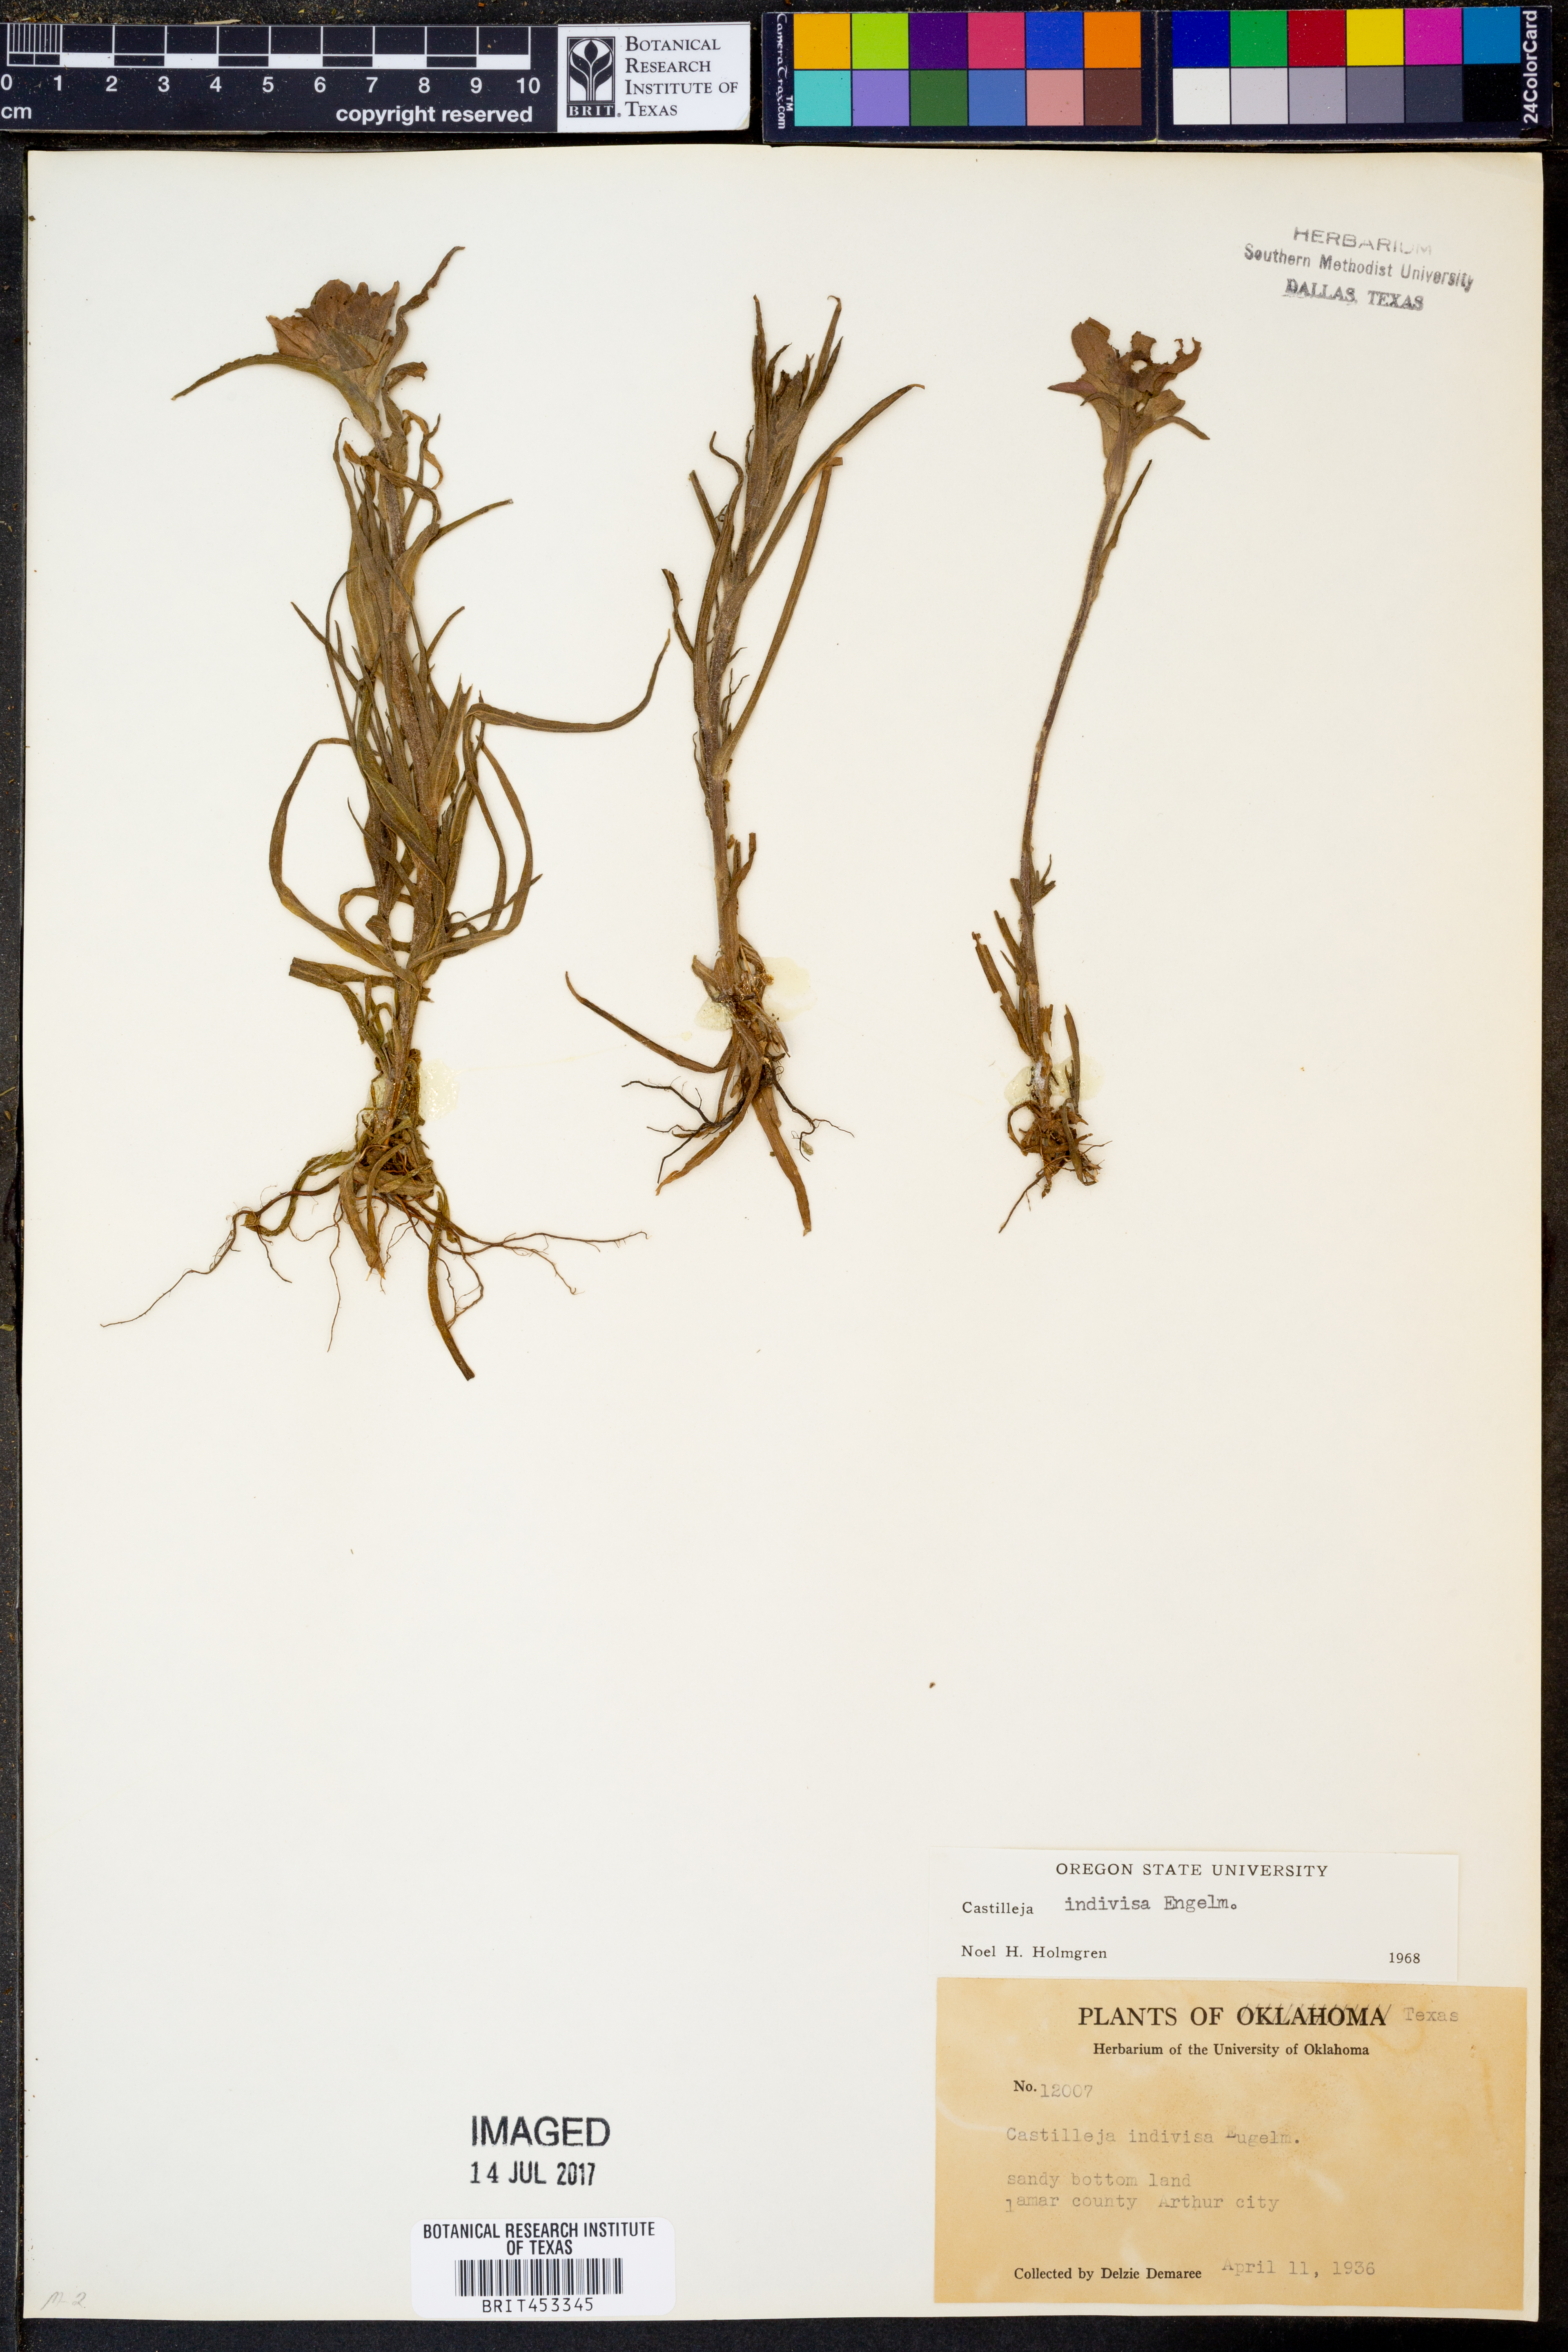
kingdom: Plantae
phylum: Tracheophyta
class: Magnoliopsida
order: Lamiales
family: Orobanchaceae
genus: Castilleja
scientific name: Castilleja indivisa
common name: Texas paintbrush
